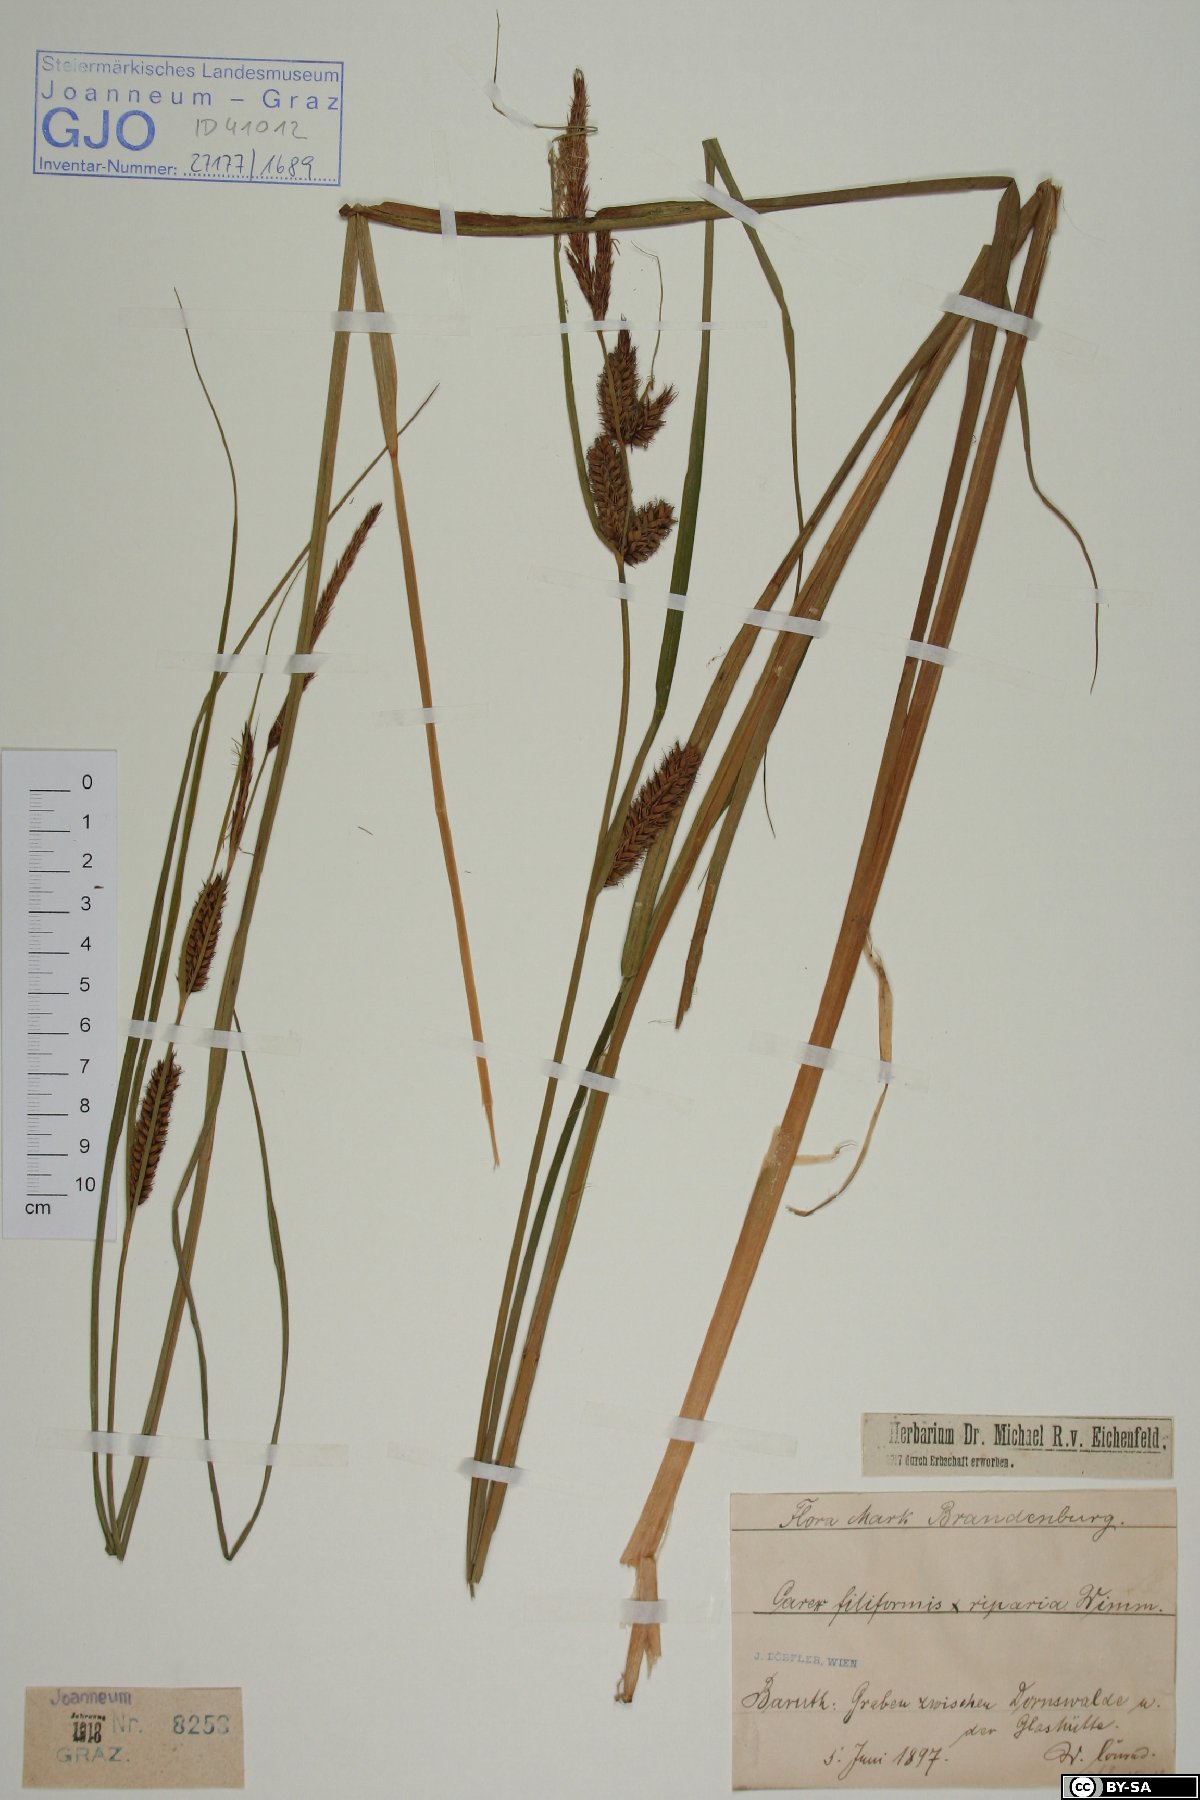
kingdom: Plantae
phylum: Tracheophyta
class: Liliopsida
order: Poales
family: Cyperaceae
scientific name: Cyperaceae
